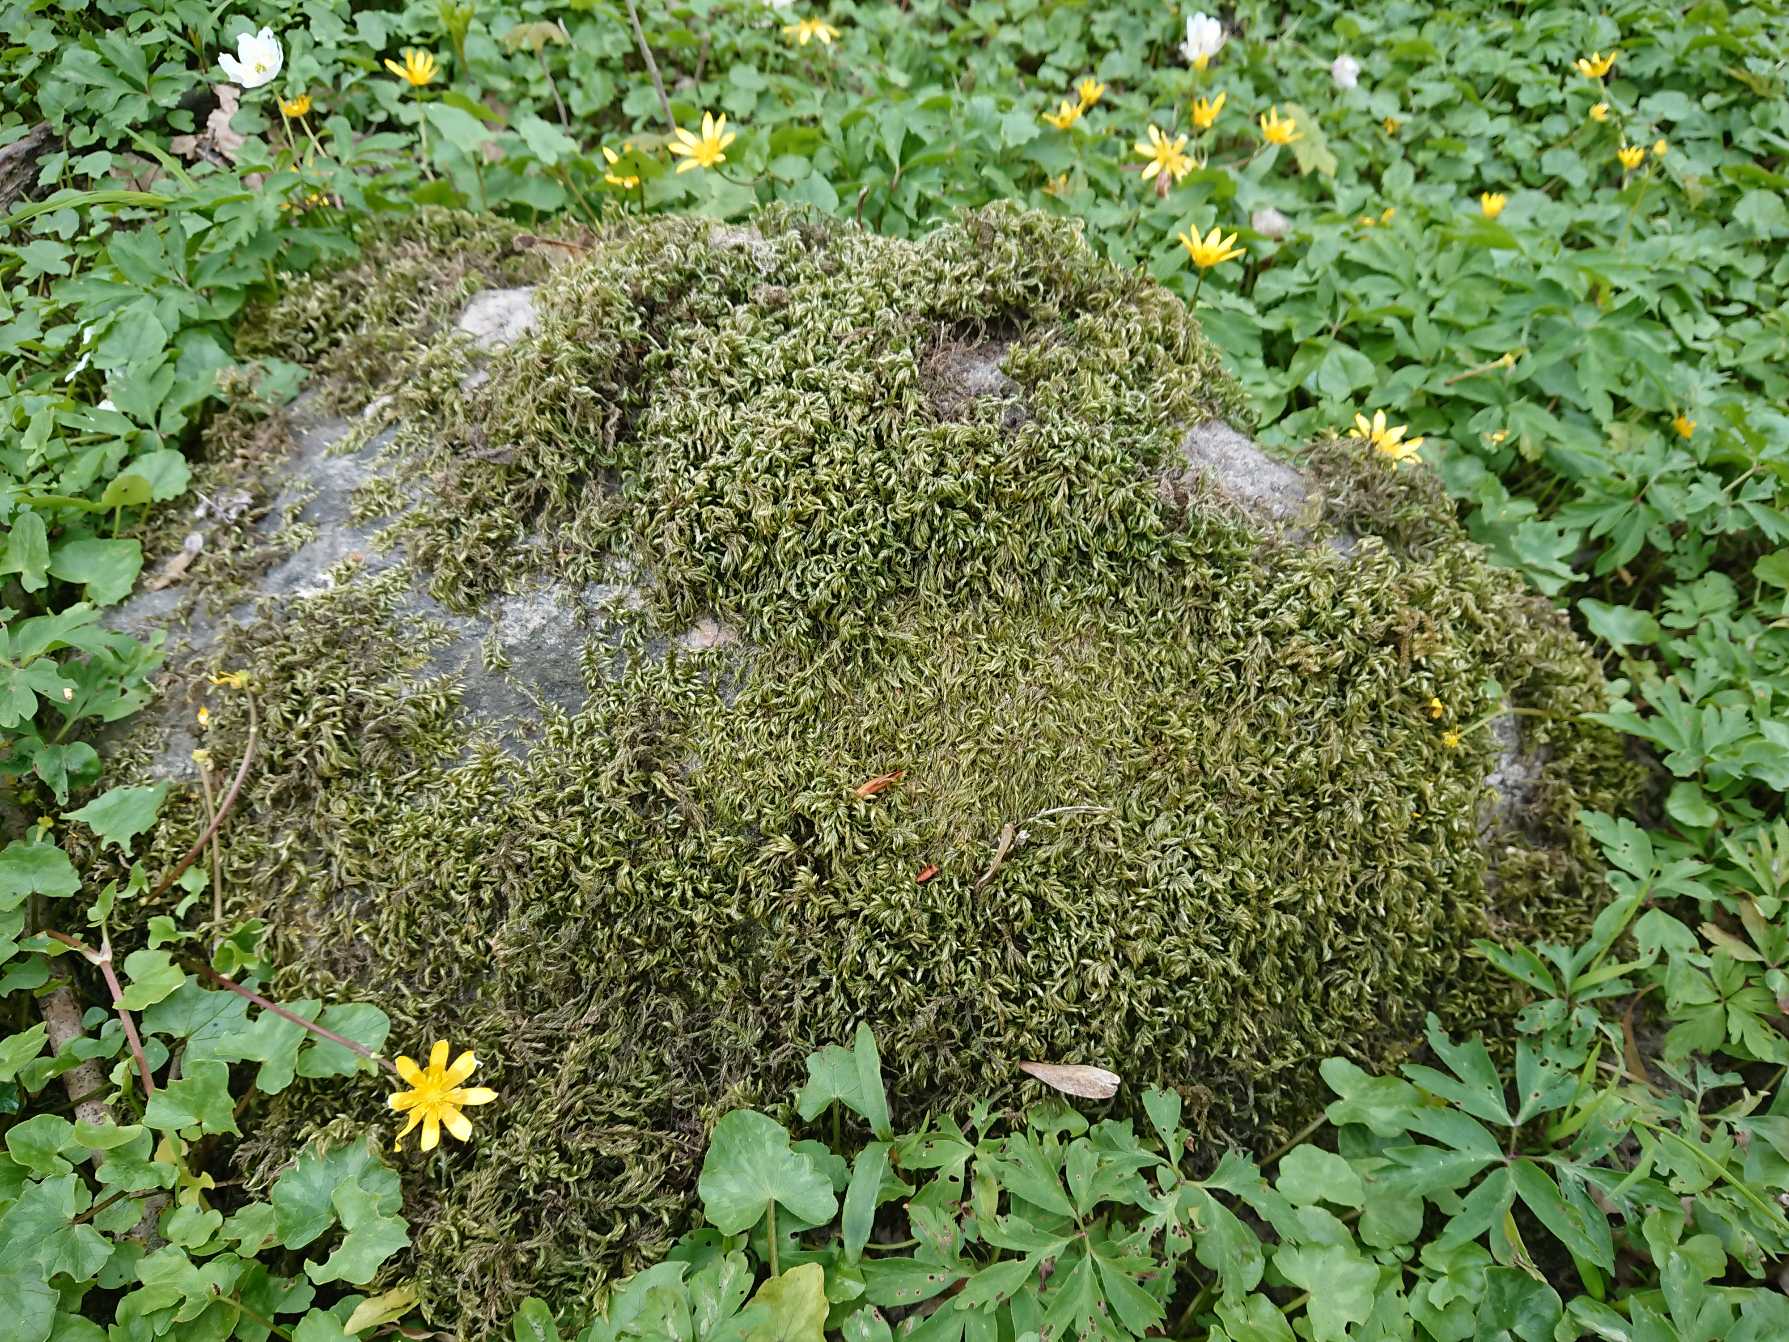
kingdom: Plantae
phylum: Bryophyta
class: Bryopsida
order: Hypnales
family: Lembophyllaceae
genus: Isothecium
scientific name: Isothecium alopecuroides
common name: Stor stammemos
